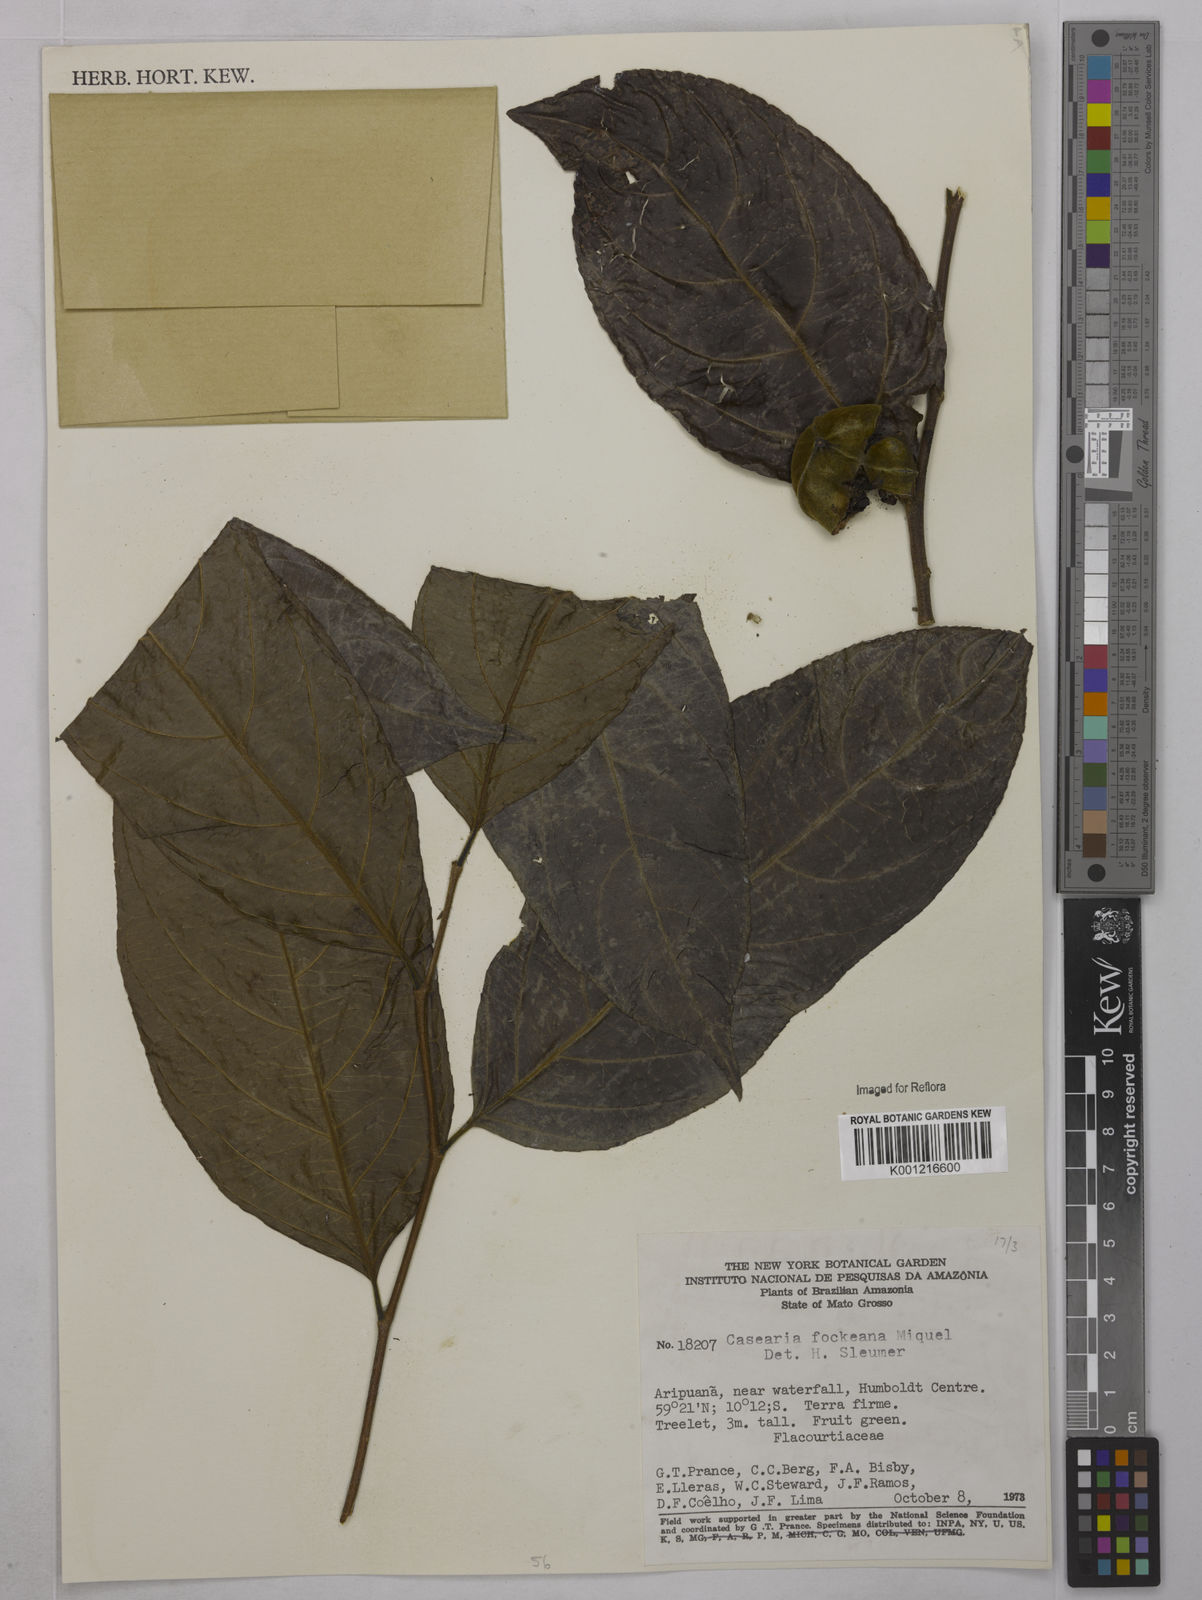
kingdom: Plantae
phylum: Tracheophyta
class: Magnoliopsida
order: Malpighiales
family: Salicaceae
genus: Casearia
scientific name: Casearia mariquitensis
